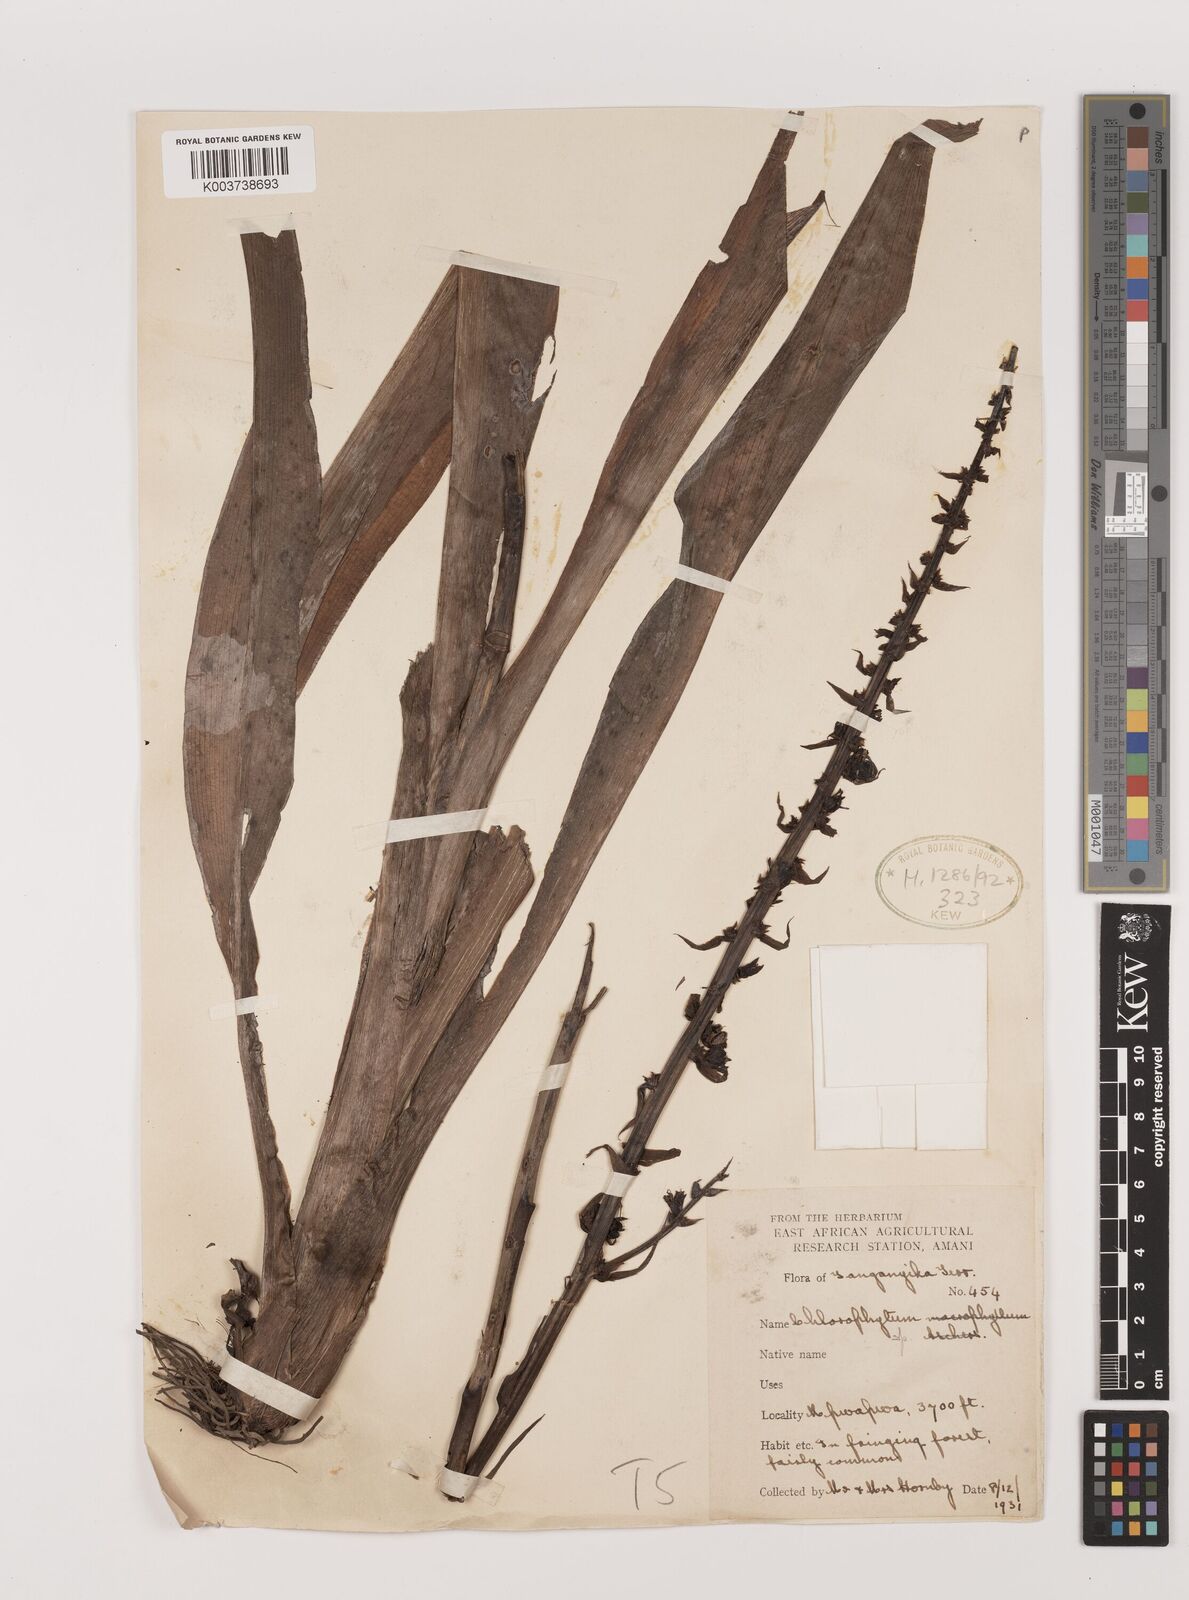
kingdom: Plantae
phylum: Tracheophyta
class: Liliopsida
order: Asparagales
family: Asparagaceae
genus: Chlorophytum
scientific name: Chlorophytum macrophyllum
